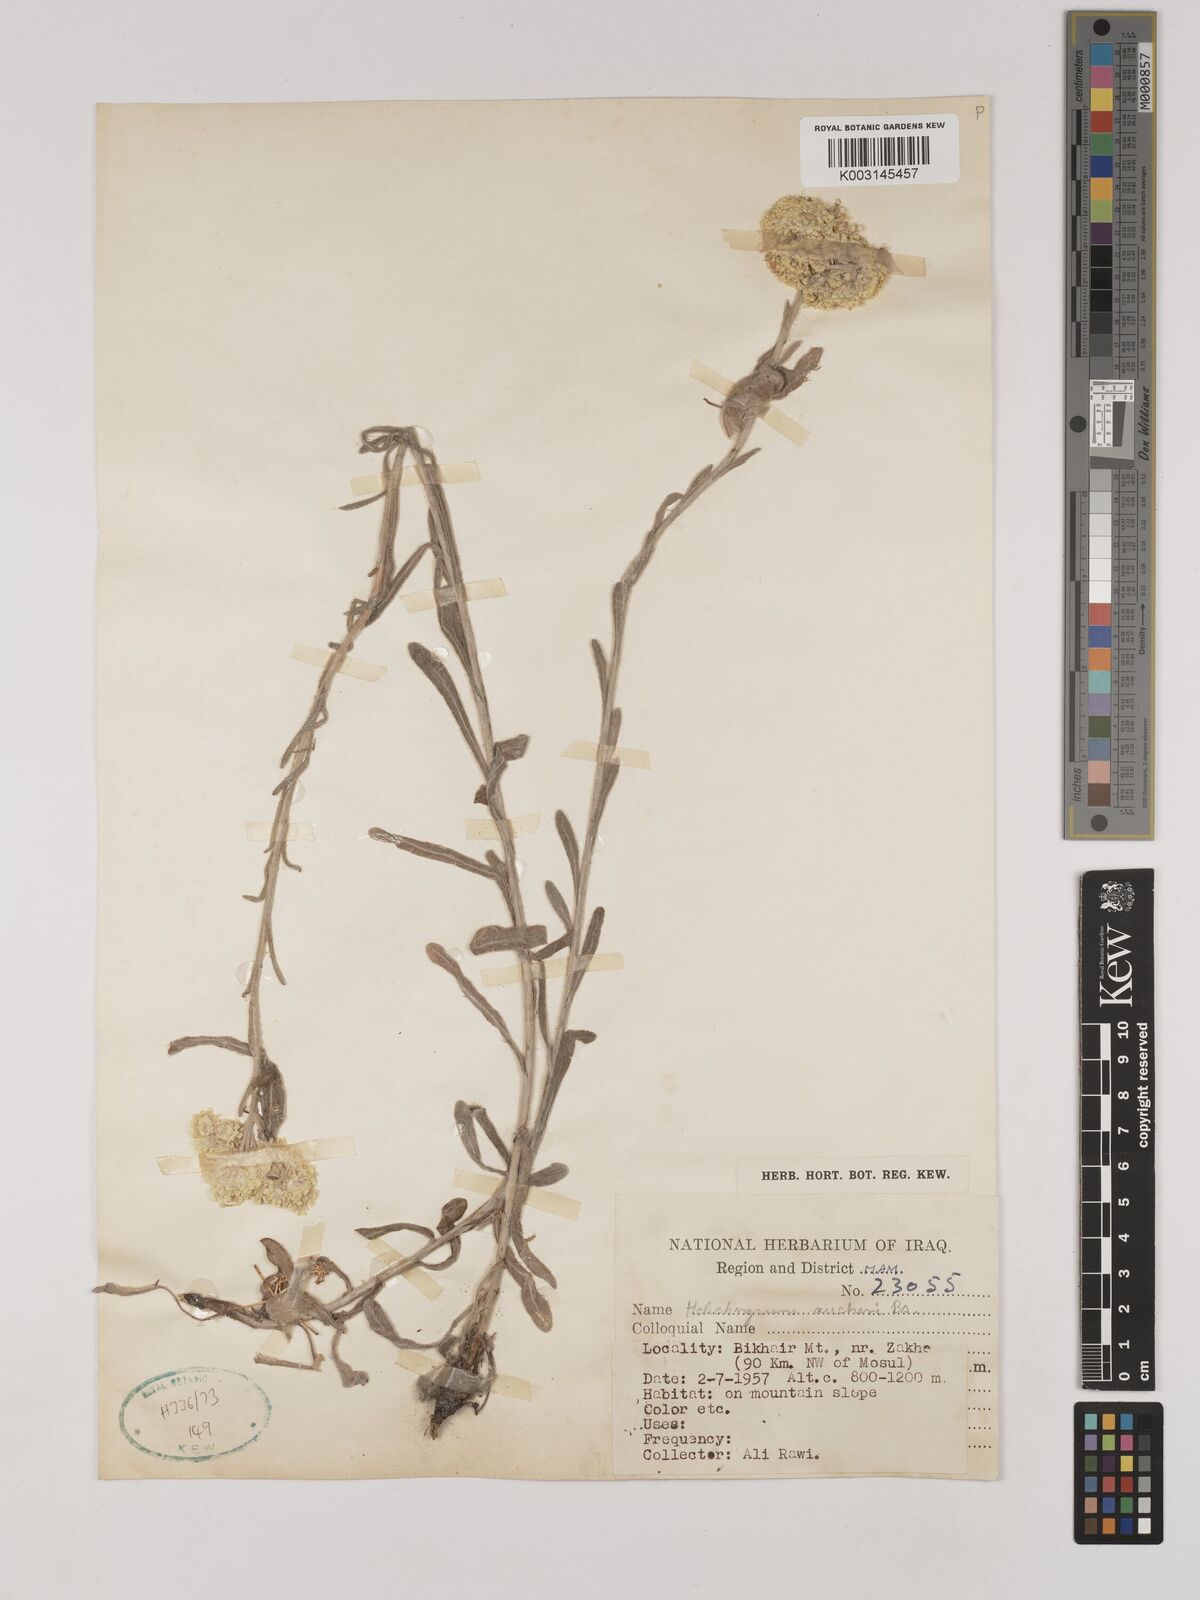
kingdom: Plantae
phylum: Tracheophyta
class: Magnoliopsida
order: Asterales
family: Asteraceae
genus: Helichrysum
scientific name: Helichrysum arenarium
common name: Strawflower
